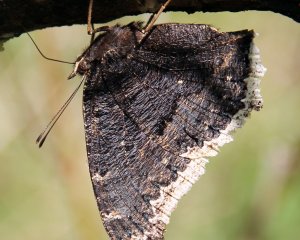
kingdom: Animalia
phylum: Arthropoda
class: Insecta
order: Lepidoptera
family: Nymphalidae
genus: Nymphalis
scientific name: Nymphalis antiopa
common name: Mourning Cloak
